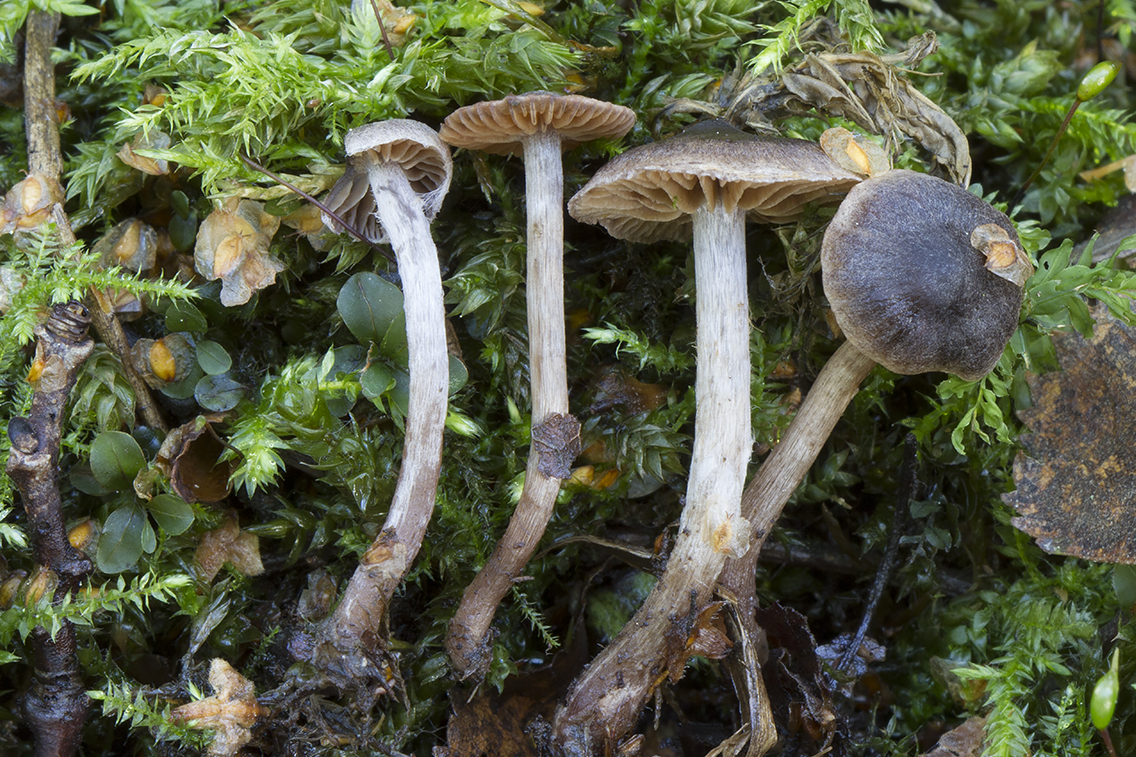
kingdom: Fungi
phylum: Basidiomycota
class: Agaricomycetes
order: Agaricales
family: Cortinariaceae
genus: Cortinarius
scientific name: Cortinarius decipiens
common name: blåsort slørhat
